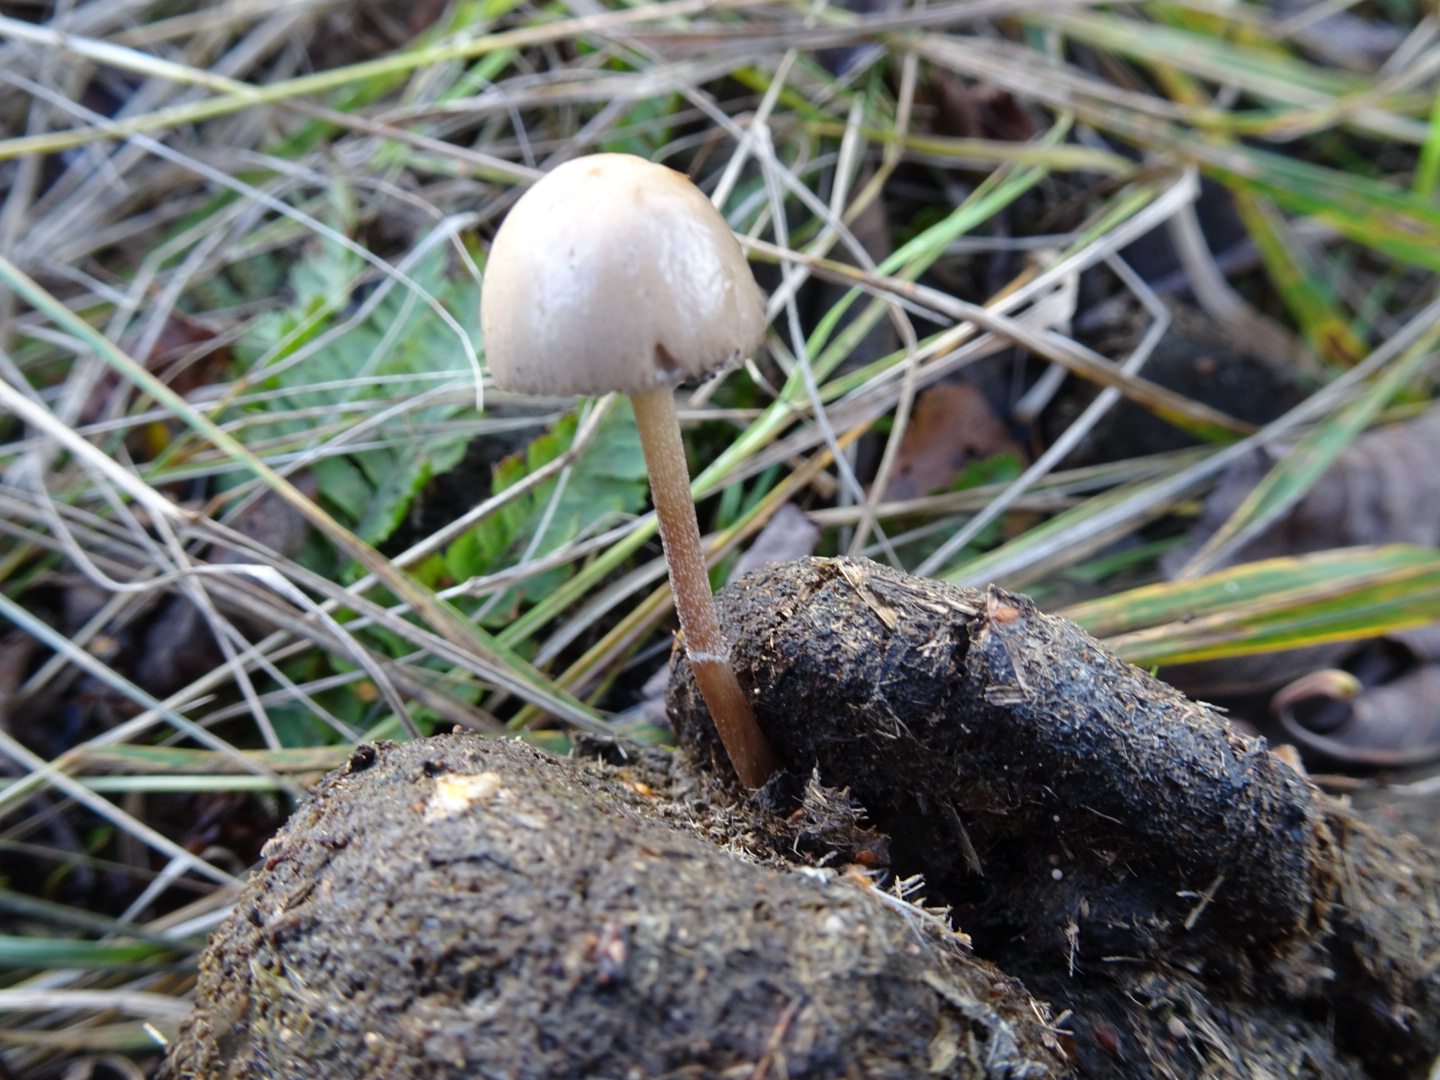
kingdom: Fungi
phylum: Basidiomycota
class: Agaricomycetes
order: Agaricales
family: Bolbitiaceae
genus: Panaeolus
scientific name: Panaeolus semiovatus
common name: ring-glanshat
